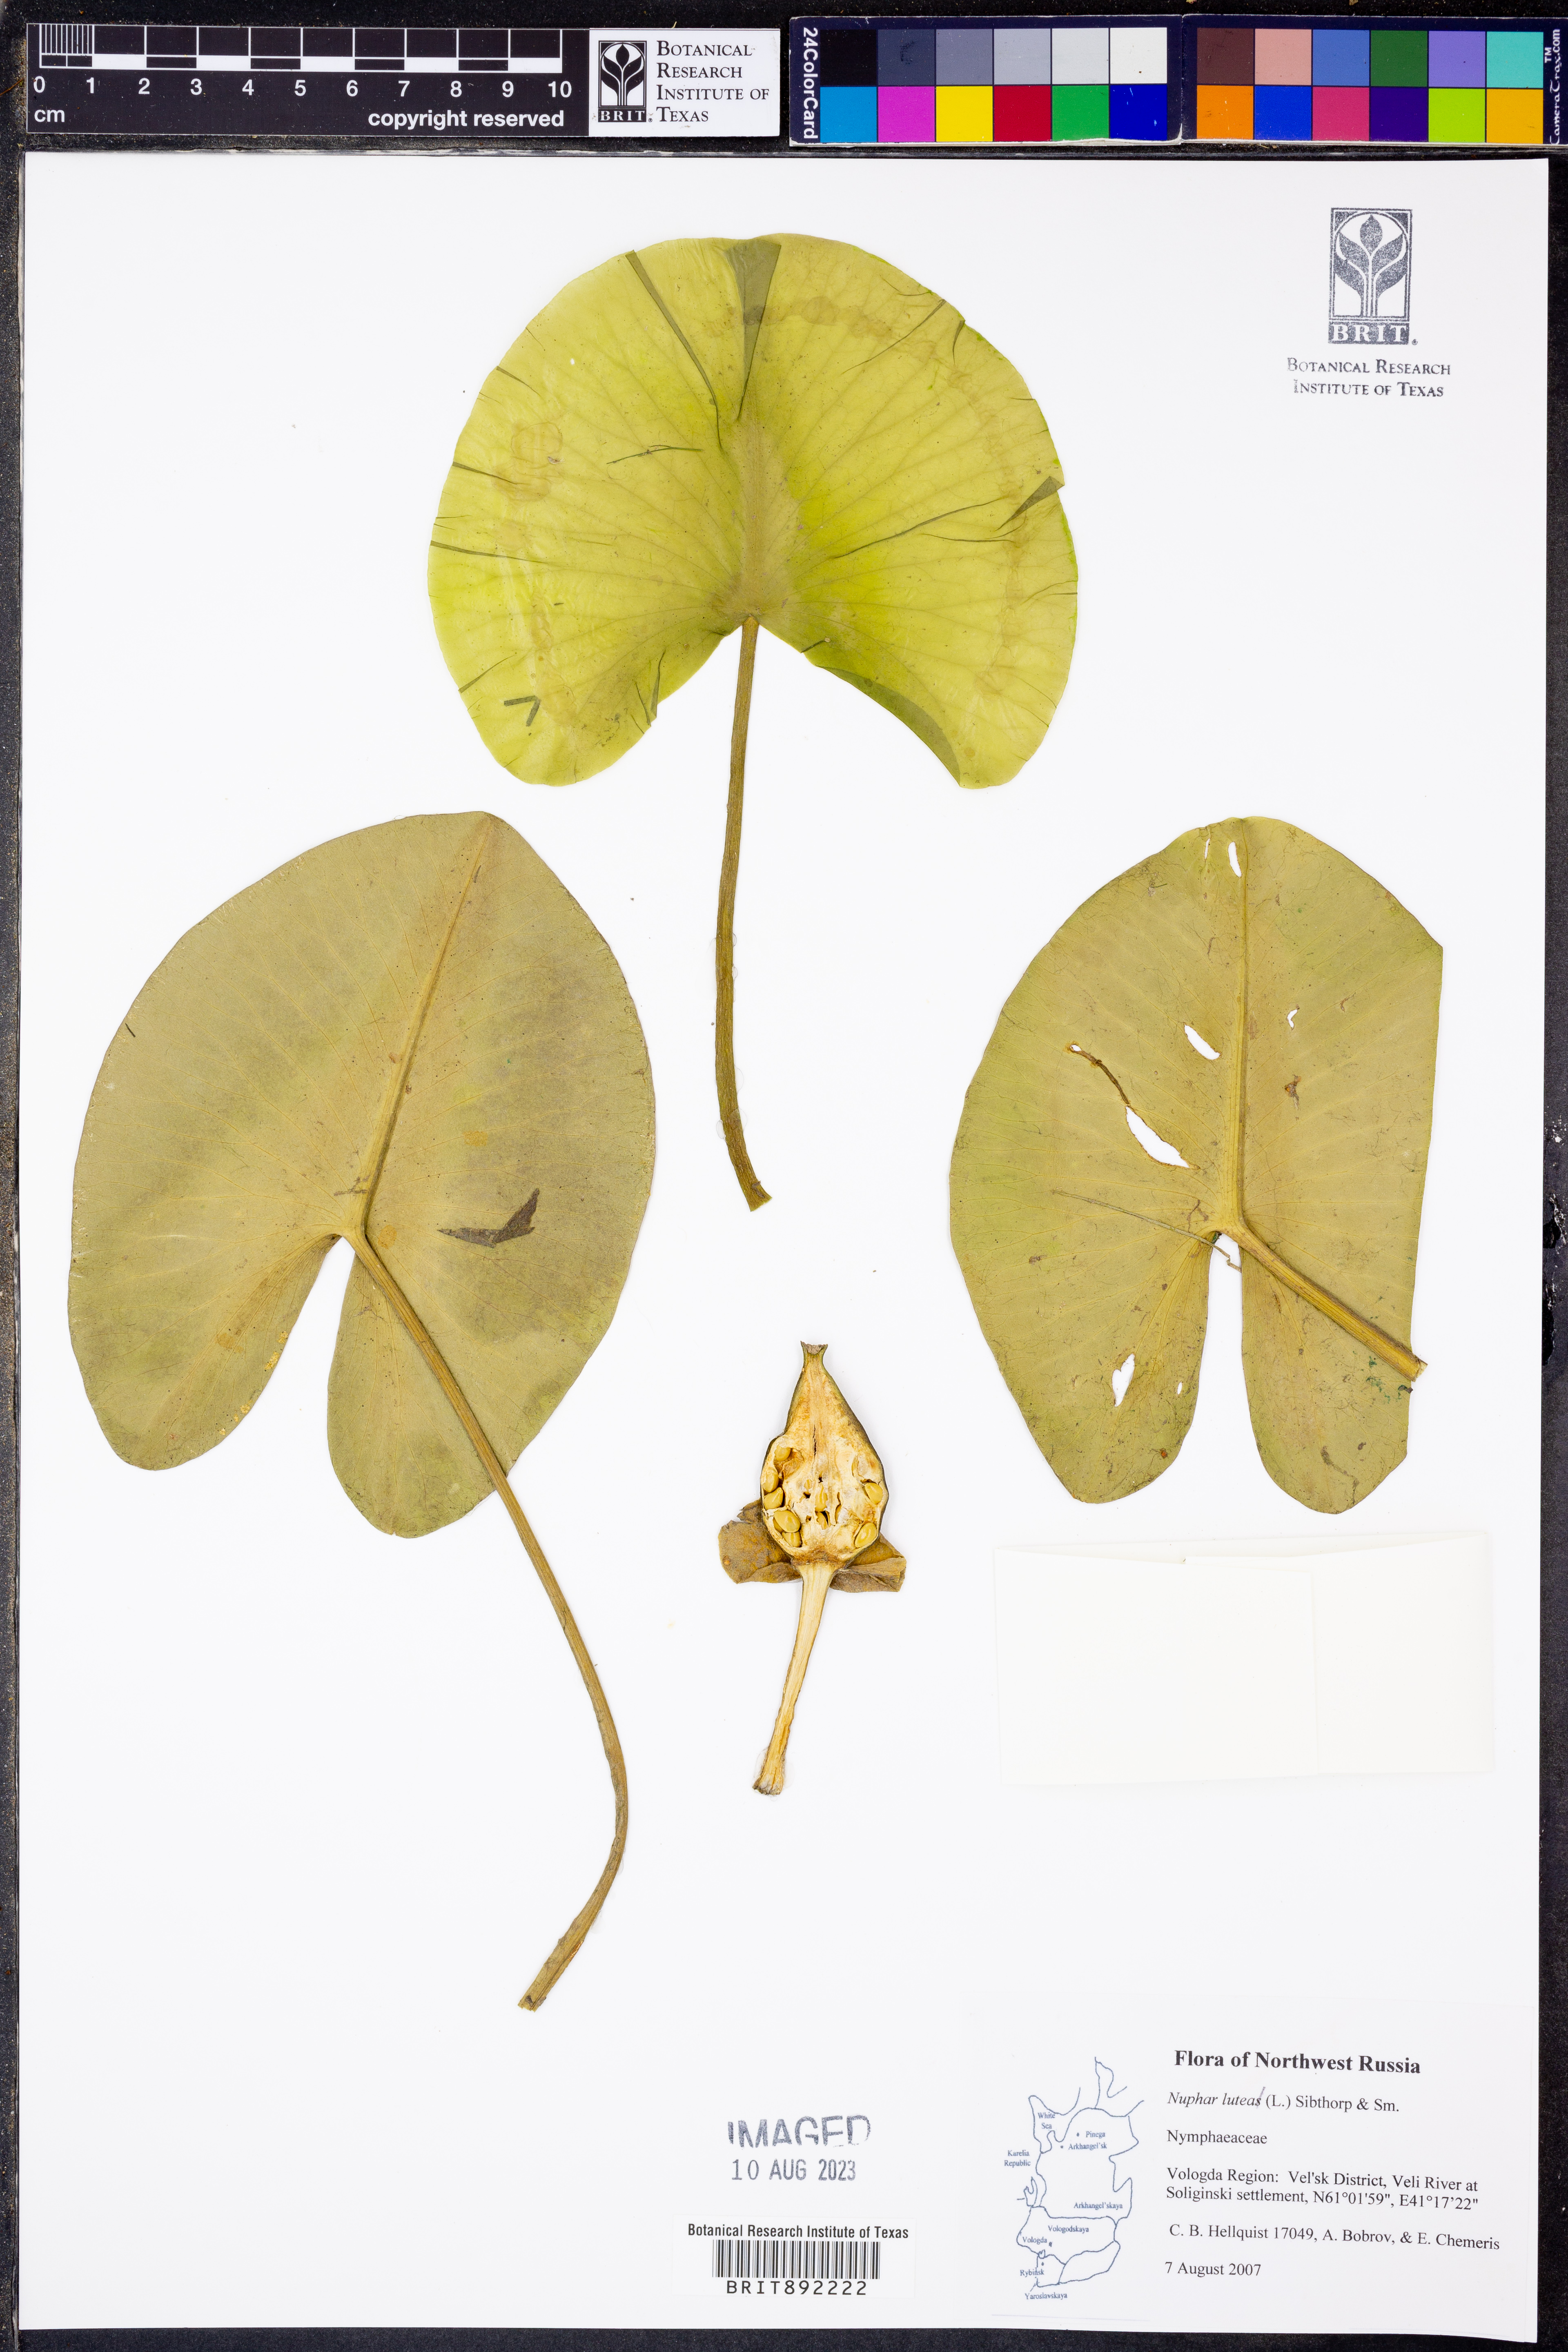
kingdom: Plantae
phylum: Tracheophyta
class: Magnoliopsida
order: Nymphaeales
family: Nymphaeaceae
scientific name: Nymphaeaceae
